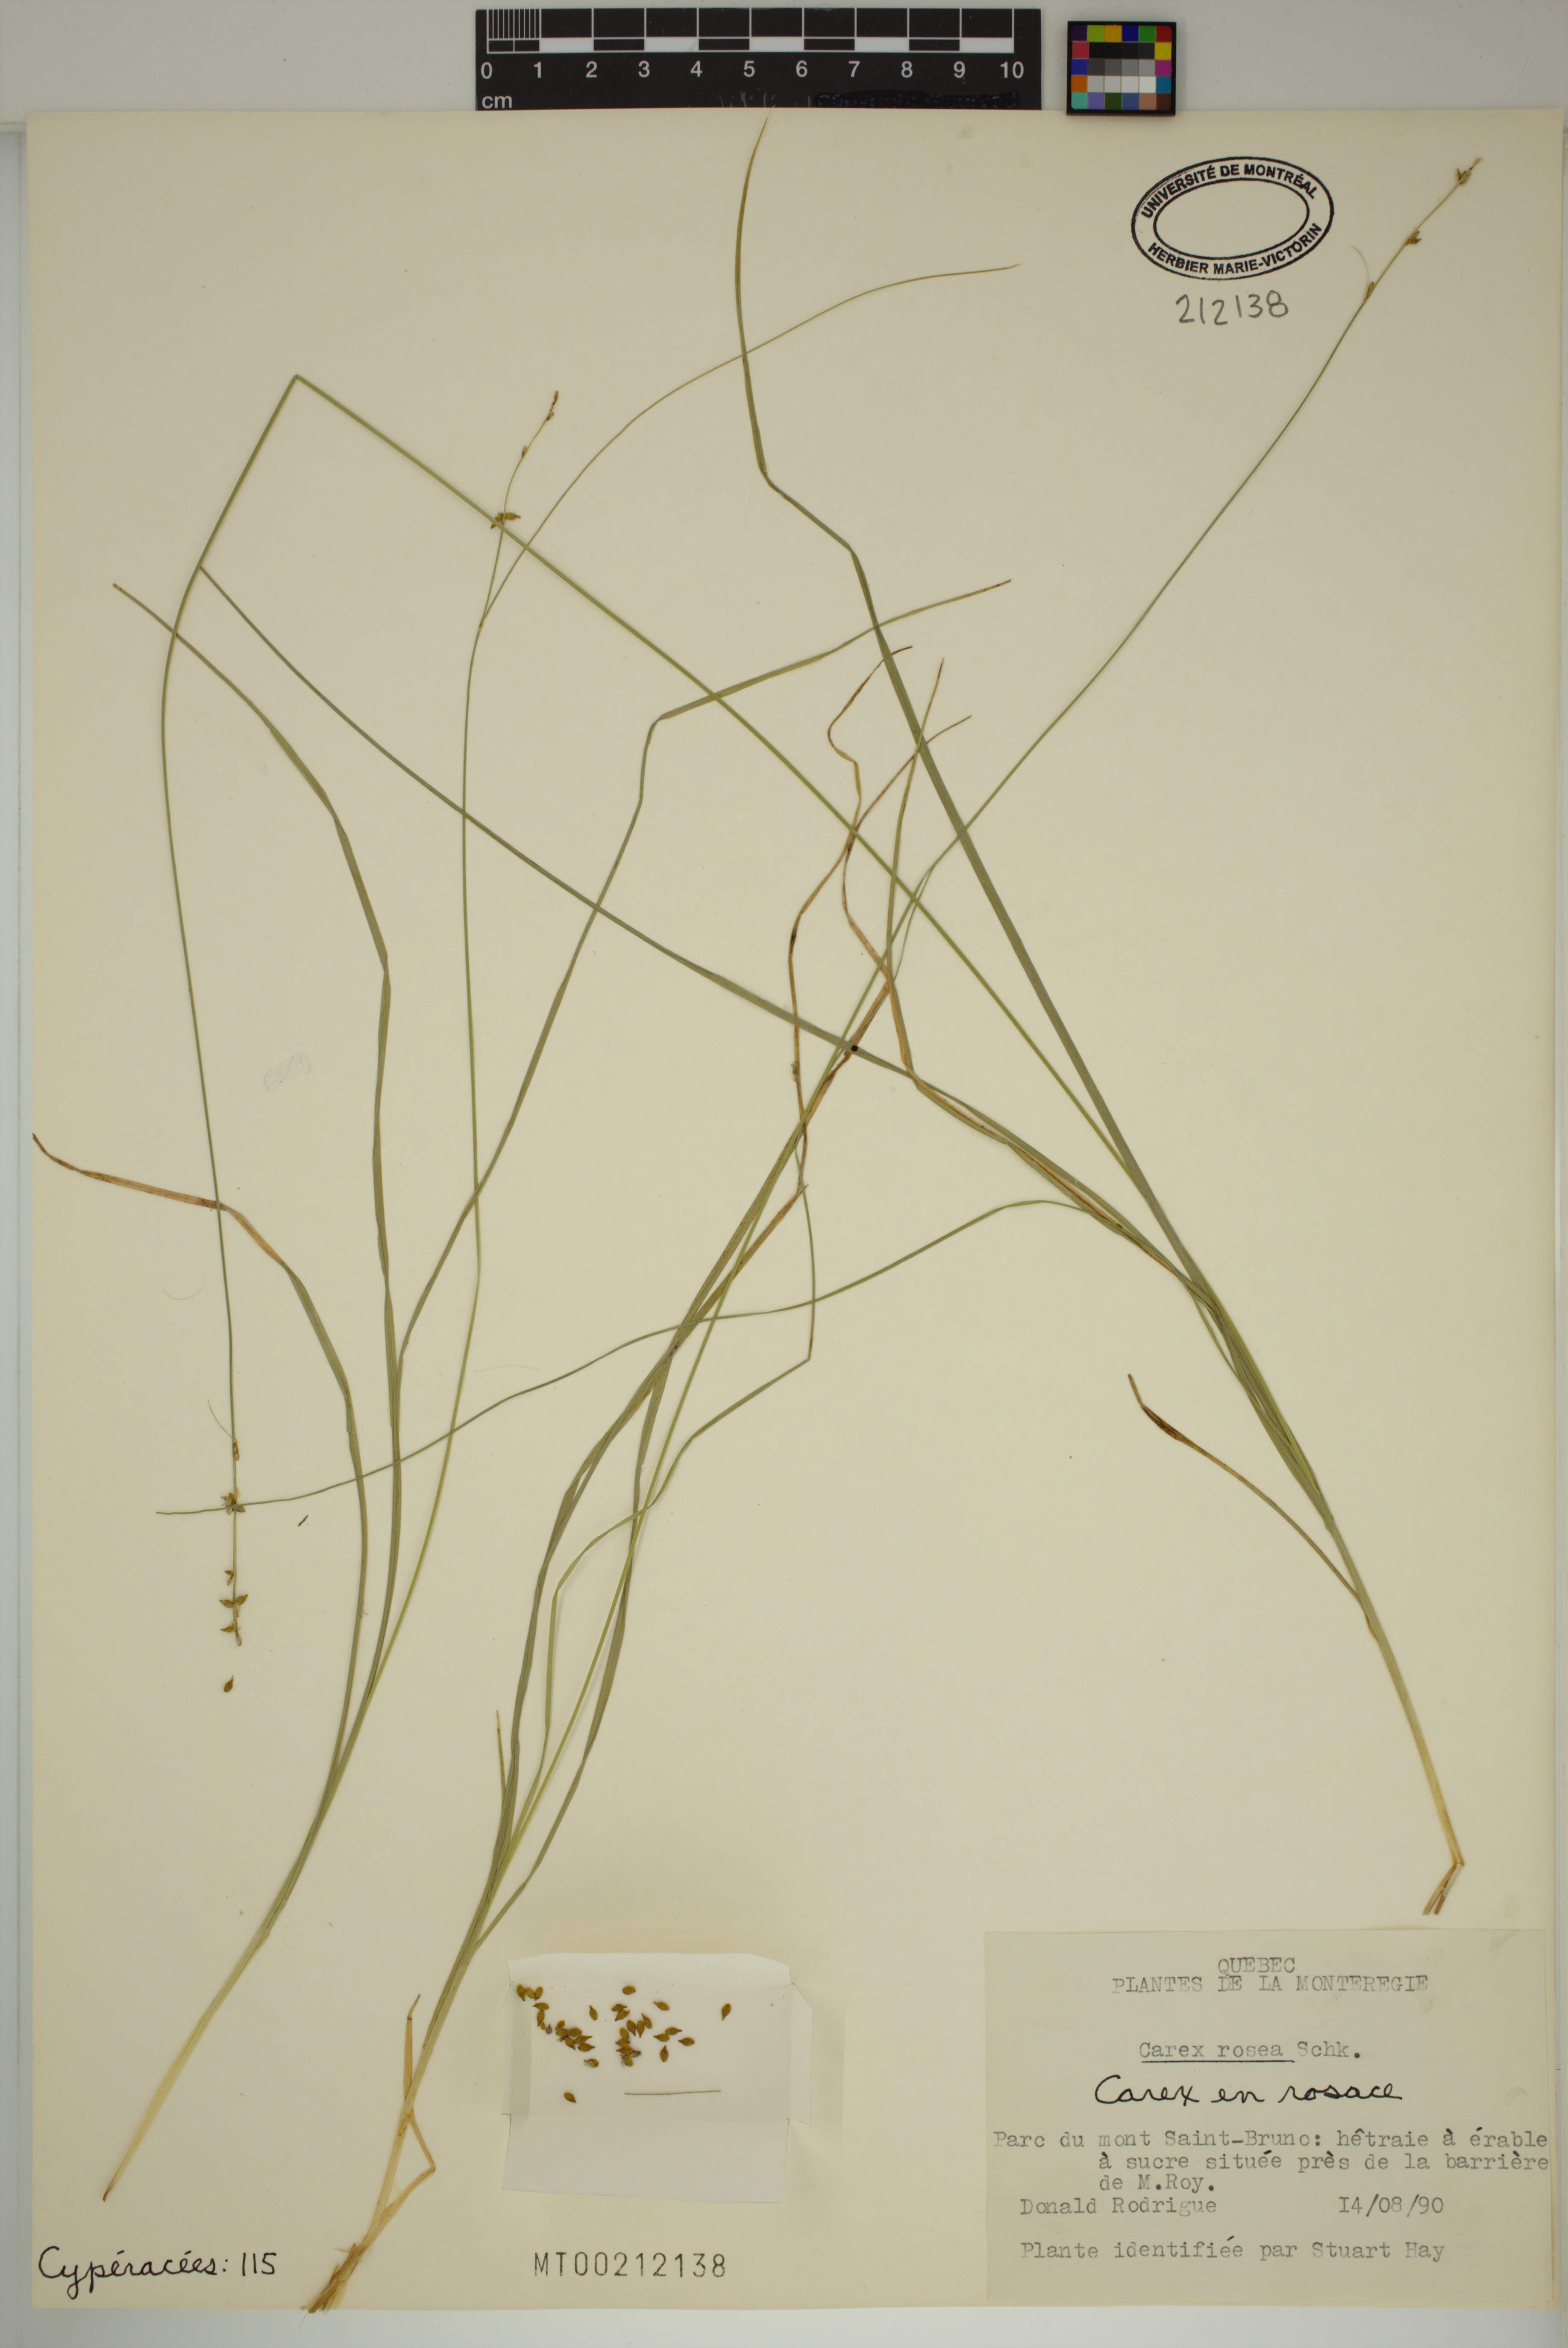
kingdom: Plantae
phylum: Tracheophyta
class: Liliopsida
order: Poales
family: Cyperaceae
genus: Carex
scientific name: Carex rosea
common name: Curly-styled wood sedge
